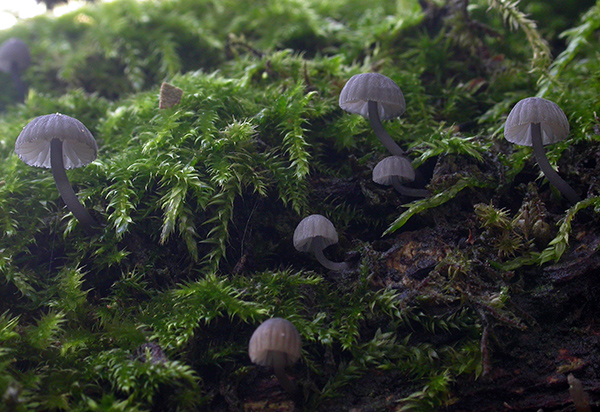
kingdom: Fungi
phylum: Basidiomycota
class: Agaricomycetes
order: Agaricales
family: Mycenaceae
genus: Mycena
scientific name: Mycena pseudocorticola
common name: gråblå bark-huesvamp
